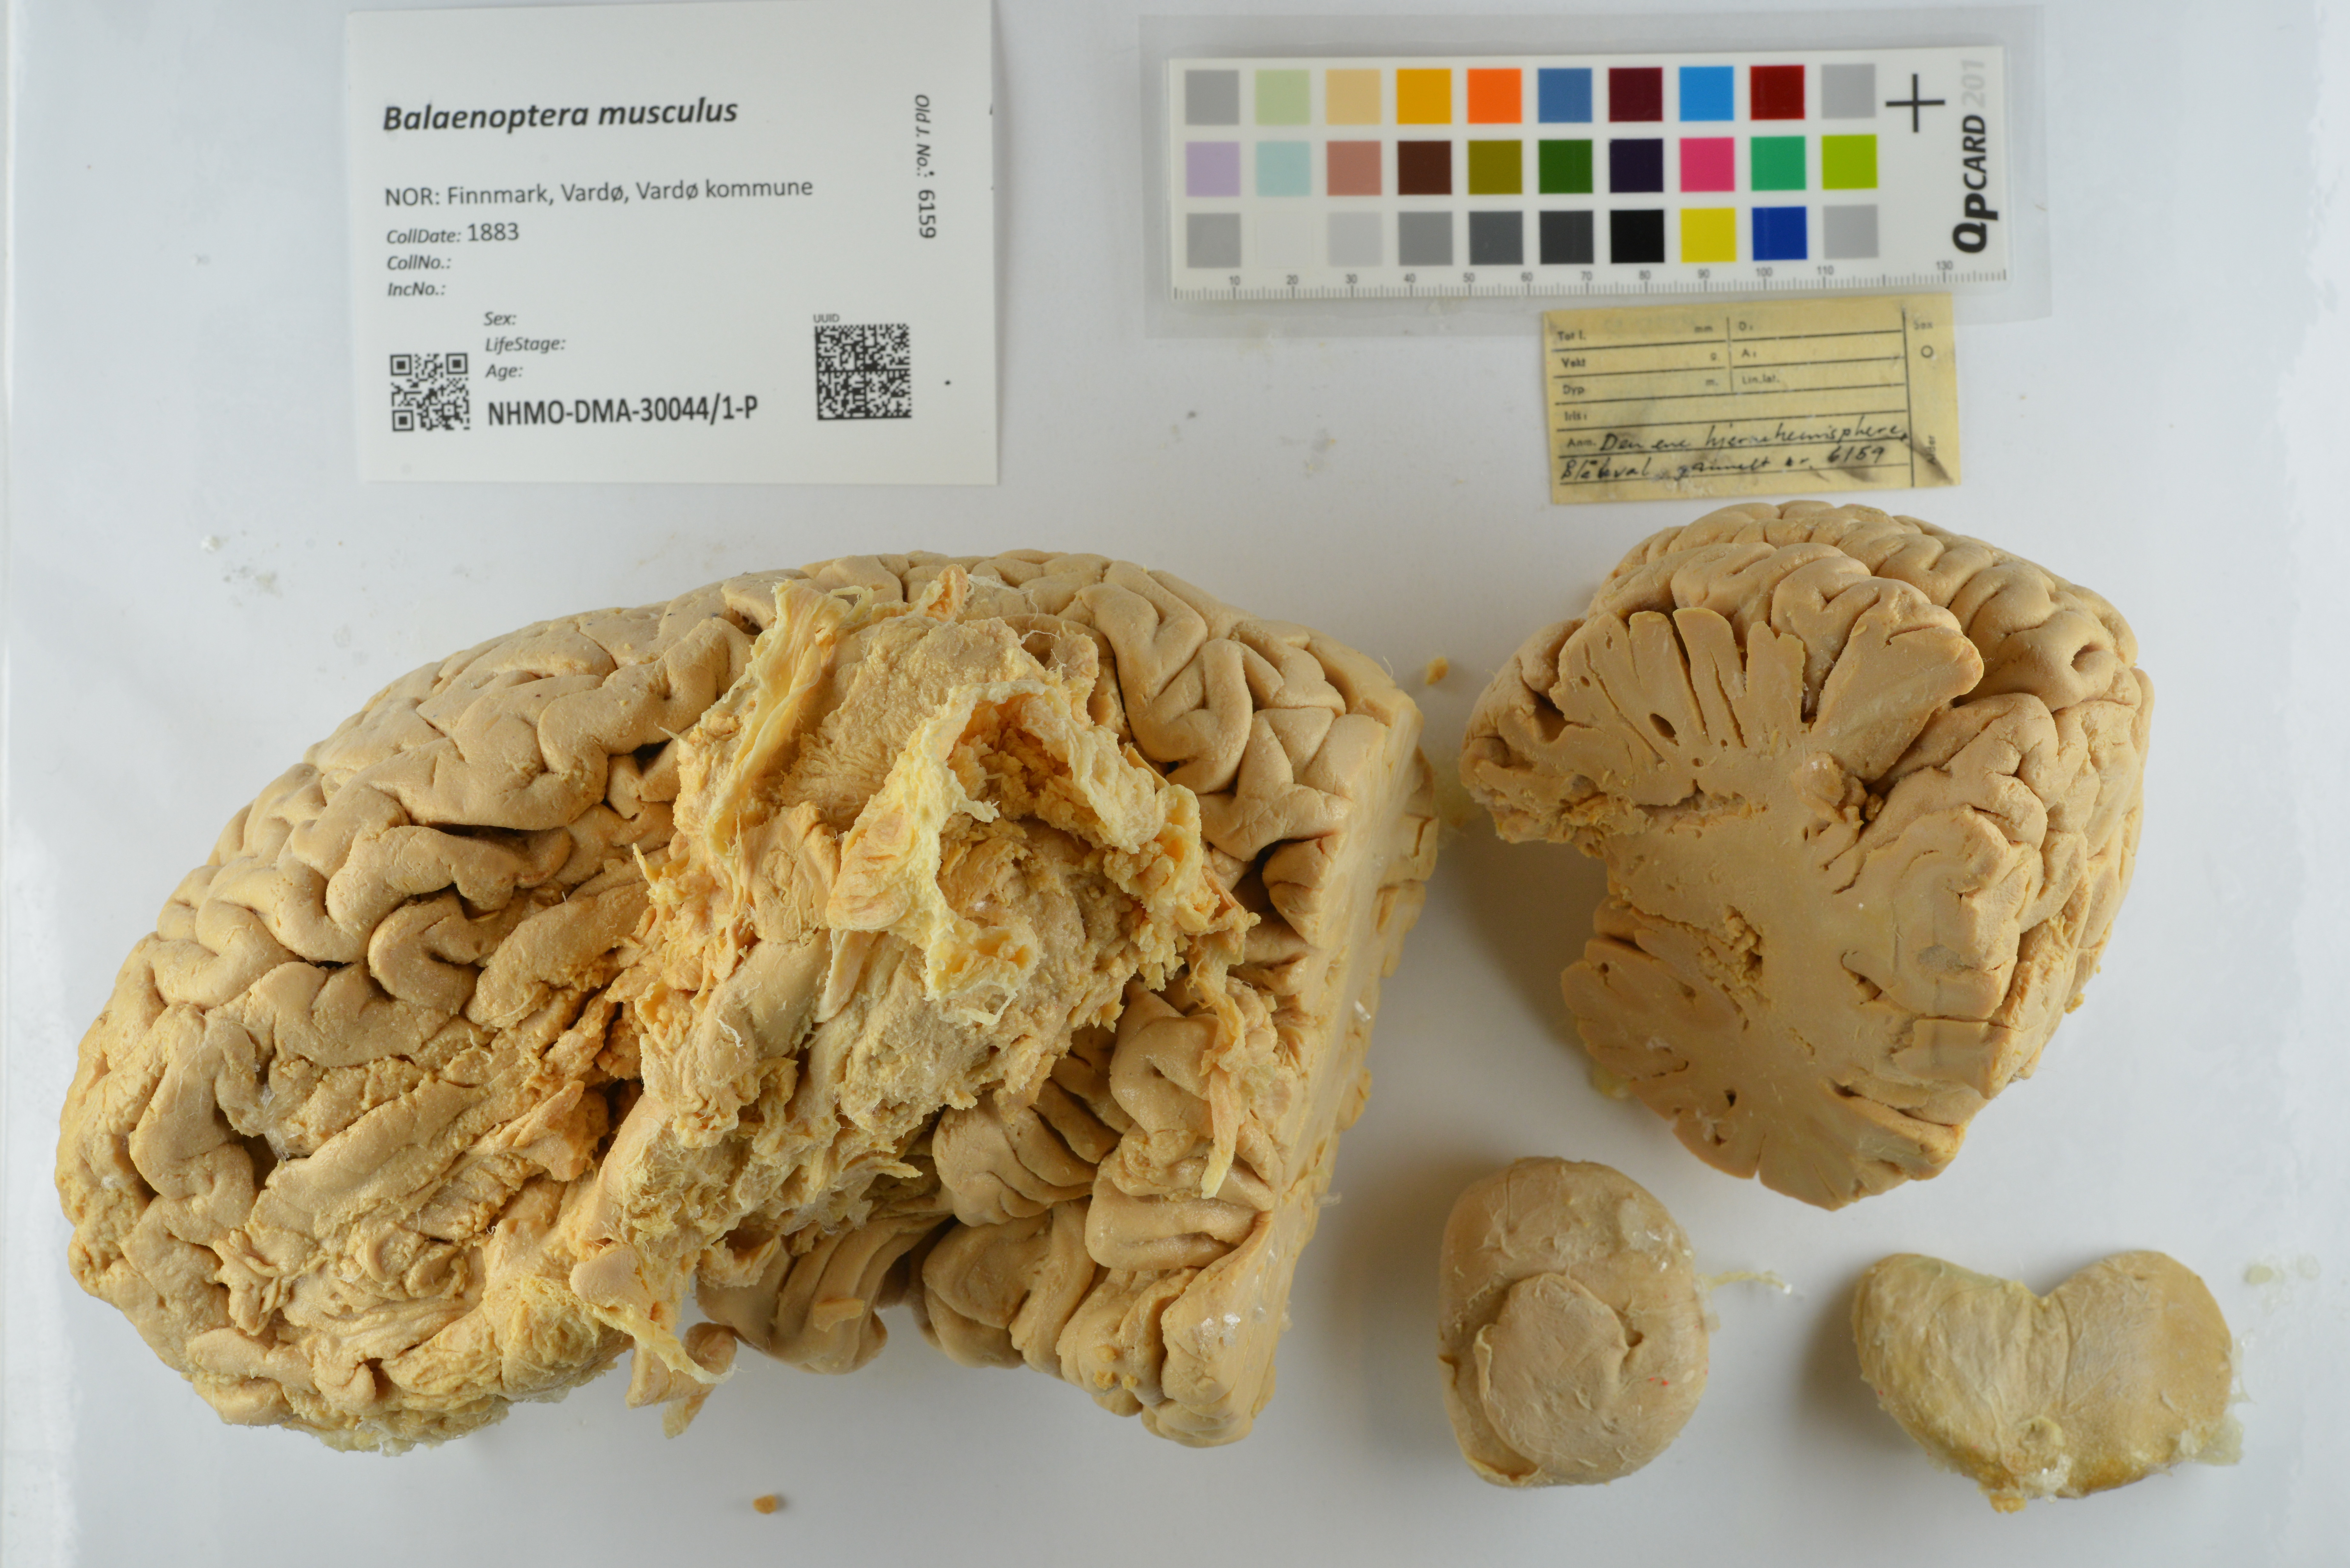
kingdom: Animalia
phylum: Chordata
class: Mammalia
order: Cetacea
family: Balaenopteridae
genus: Balaenoptera
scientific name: Balaenoptera musculus
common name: Blue whale
